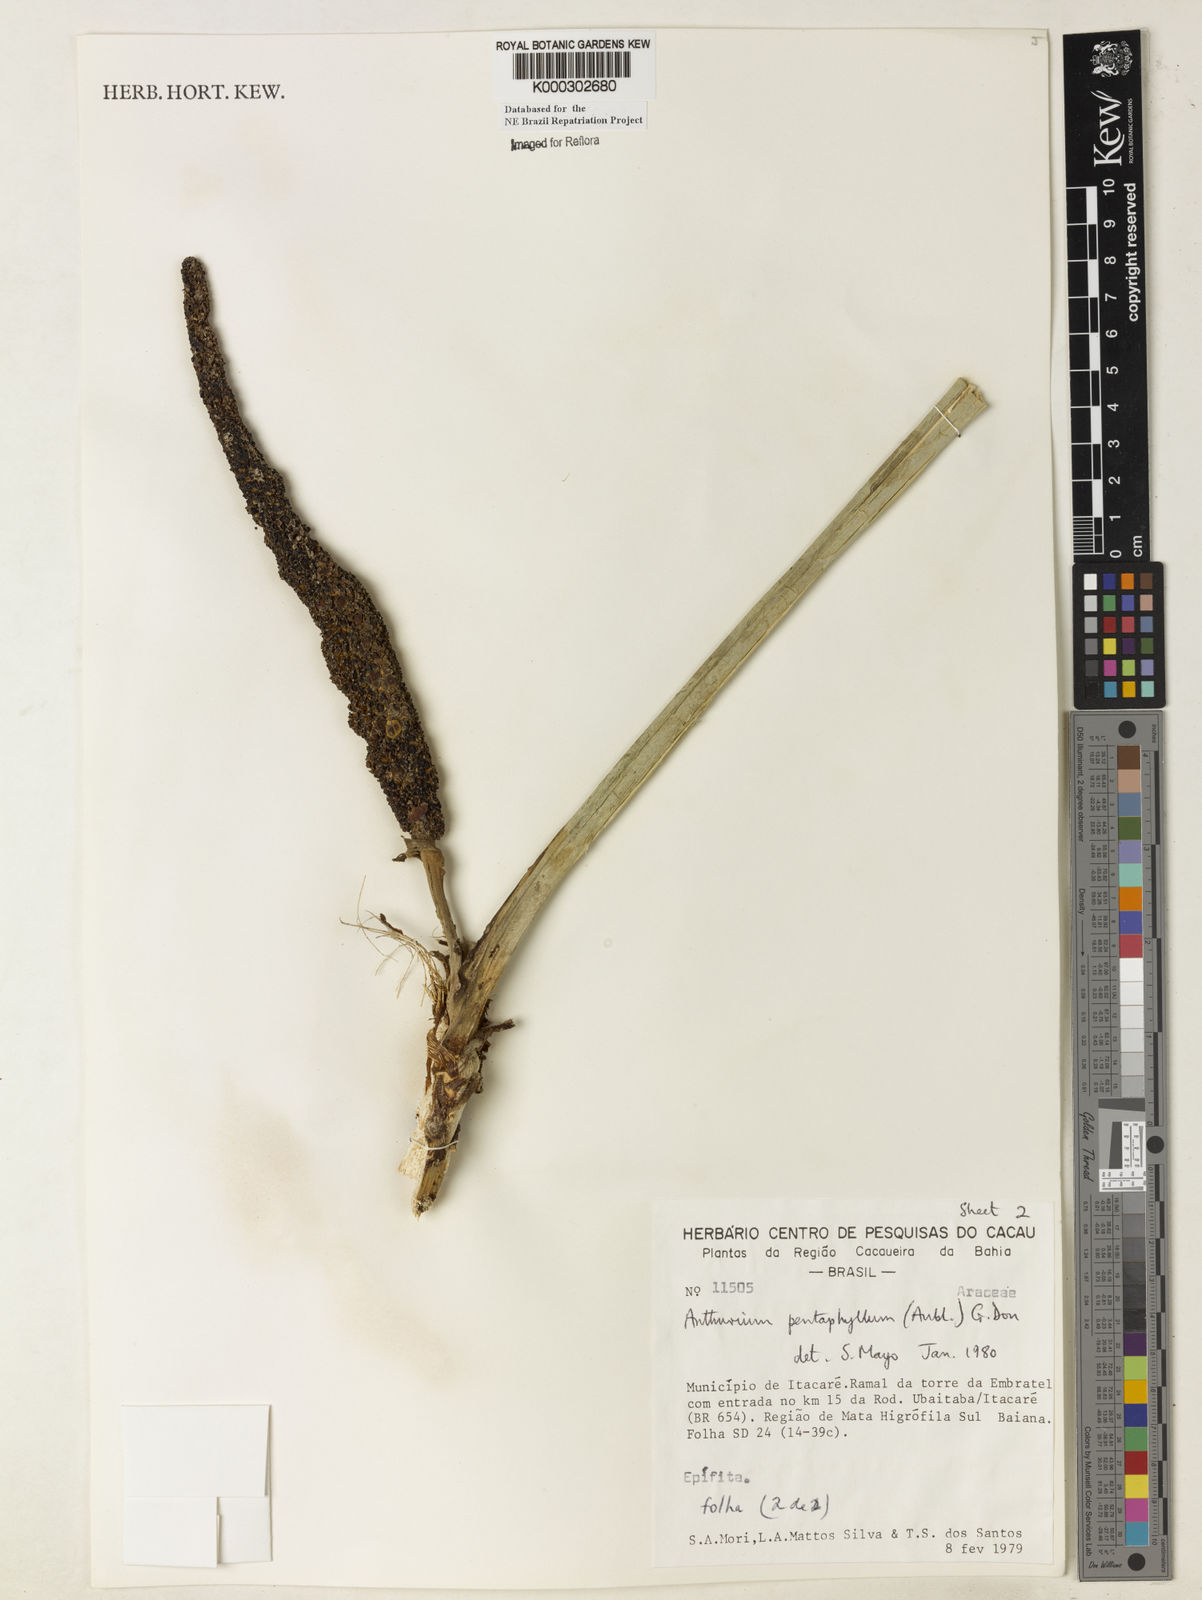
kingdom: Plantae
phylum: Tracheophyta
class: Liliopsida
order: Alismatales
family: Araceae
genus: Anthurium
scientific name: Anthurium pentaphyllum
